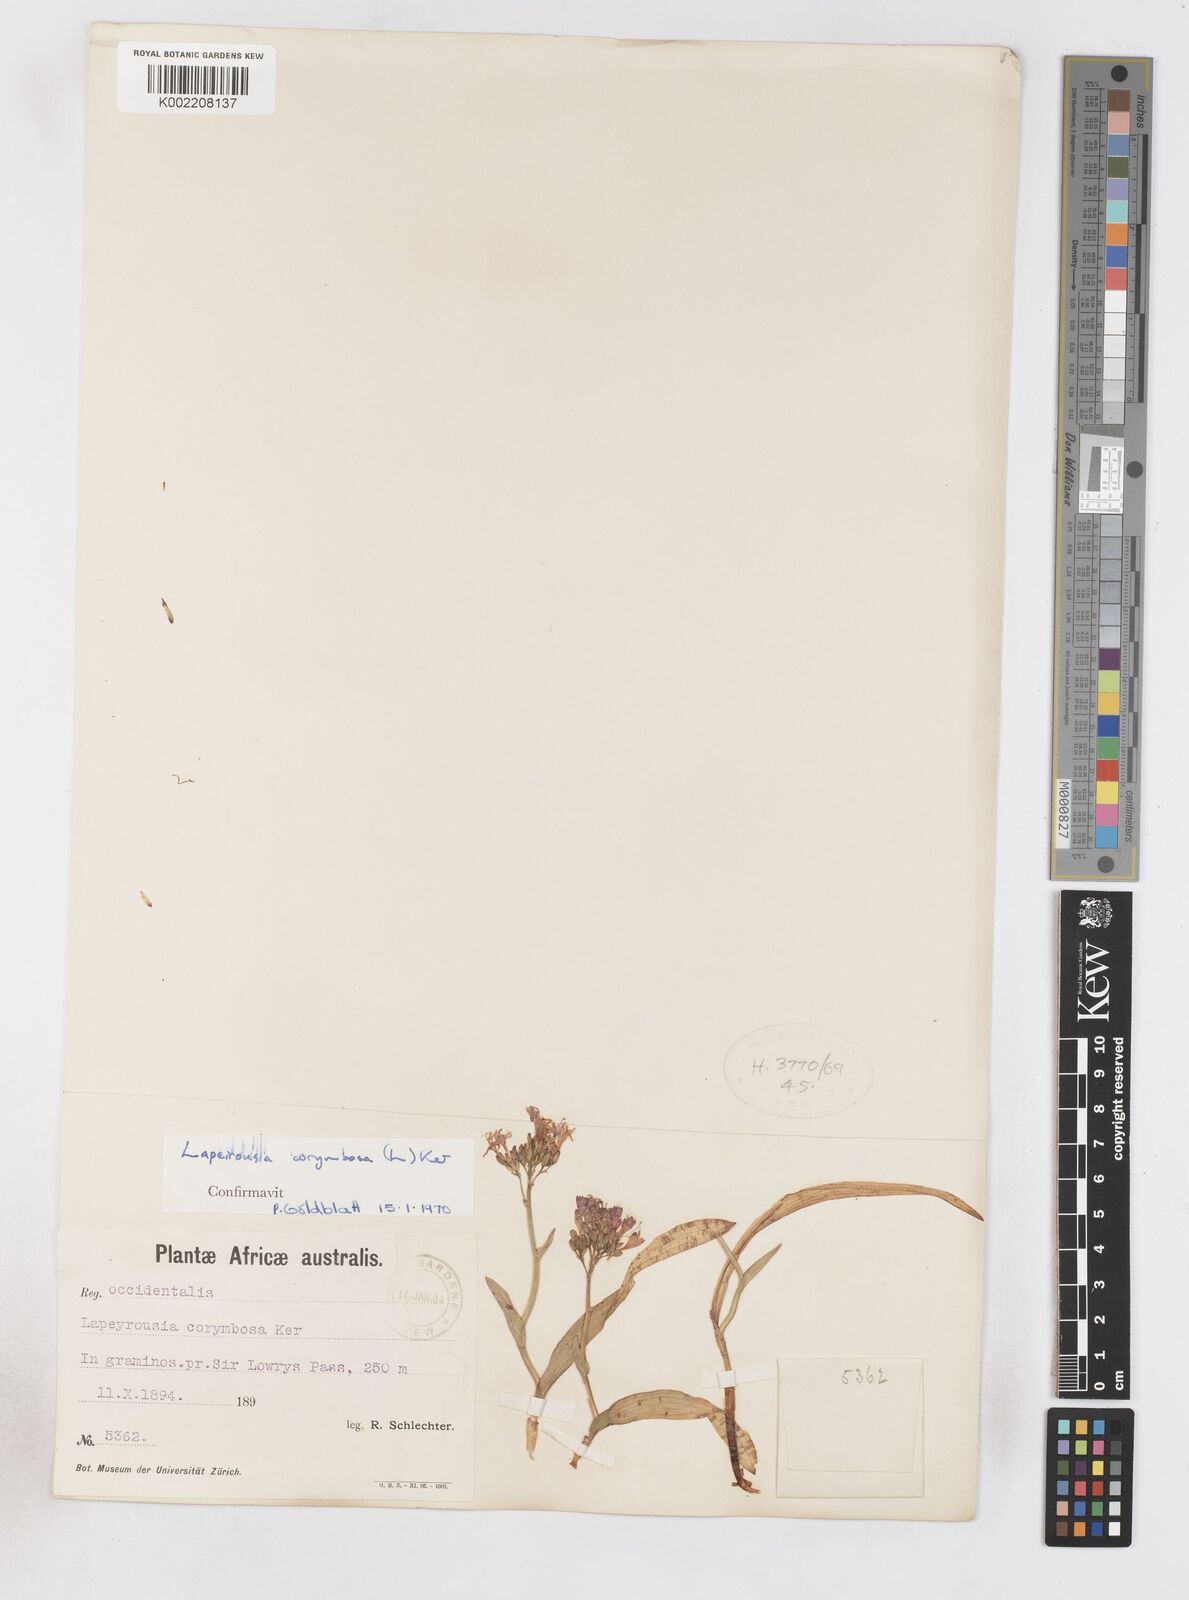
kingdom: Plantae
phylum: Tracheophyta
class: Liliopsida
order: Asparagales
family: Iridaceae
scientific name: Iridaceae
